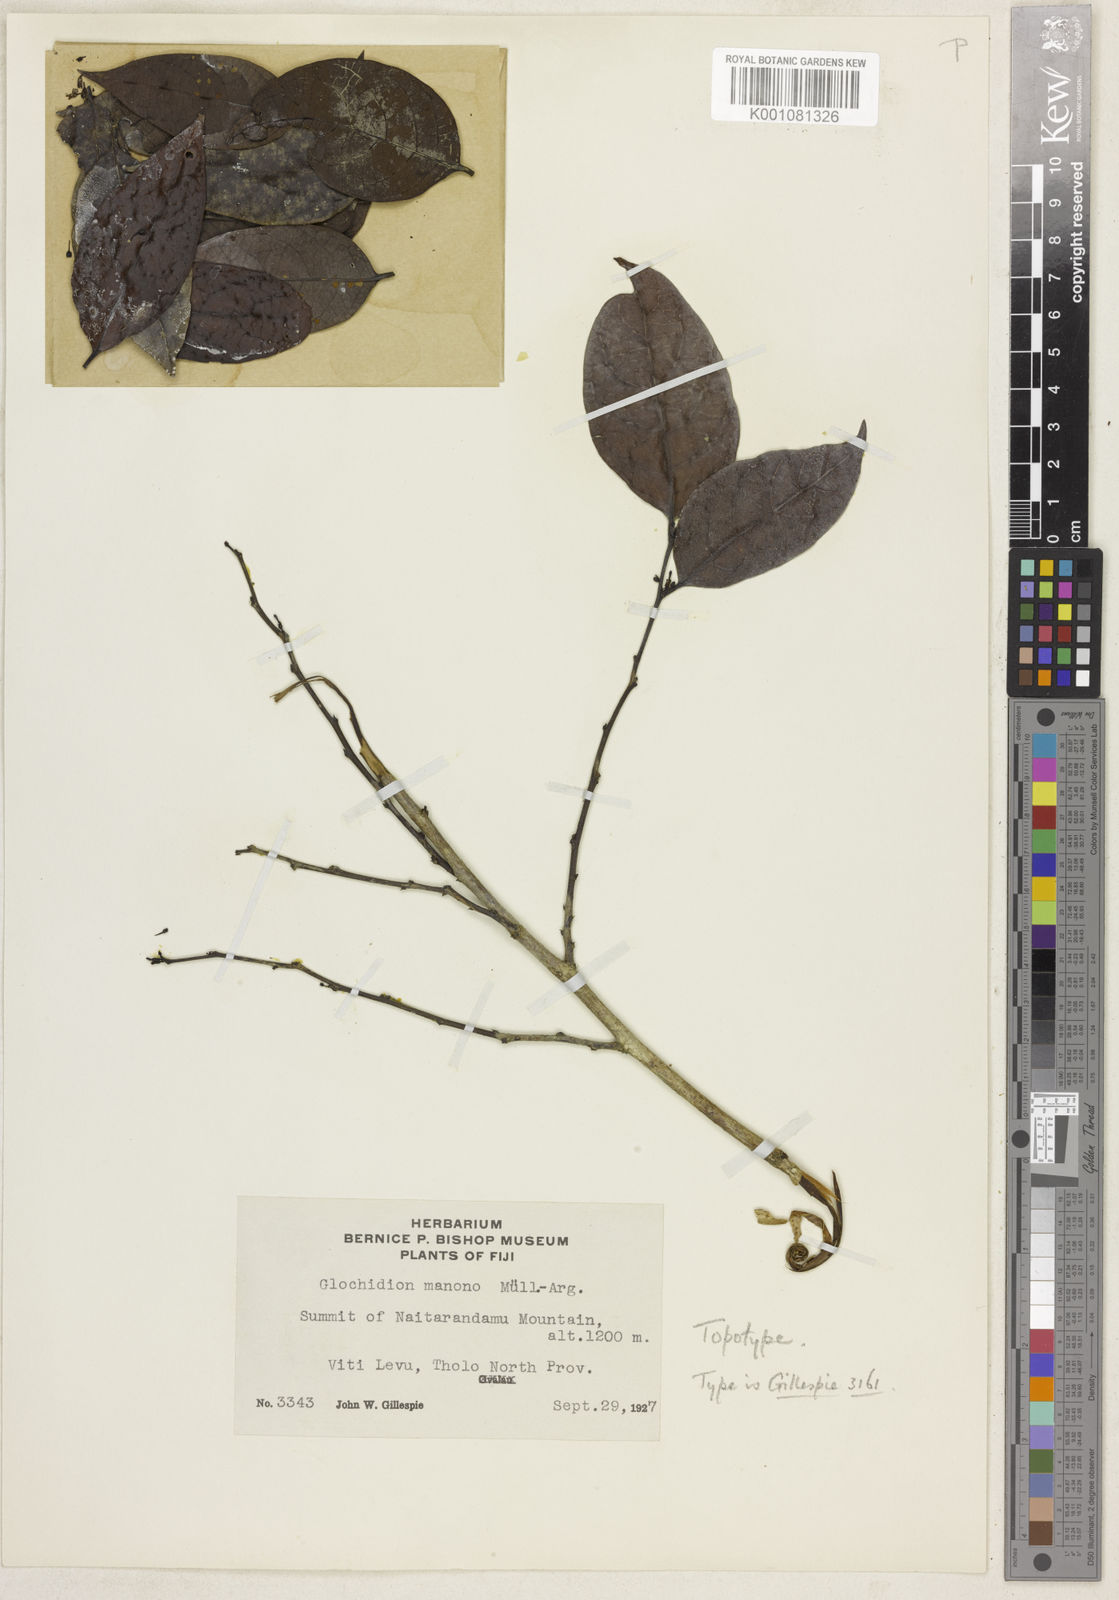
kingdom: Plantae
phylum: Tracheophyta
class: Magnoliopsida
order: Malpighiales
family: Phyllanthaceae
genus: Glochidion
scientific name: Glochidion gillespiei
